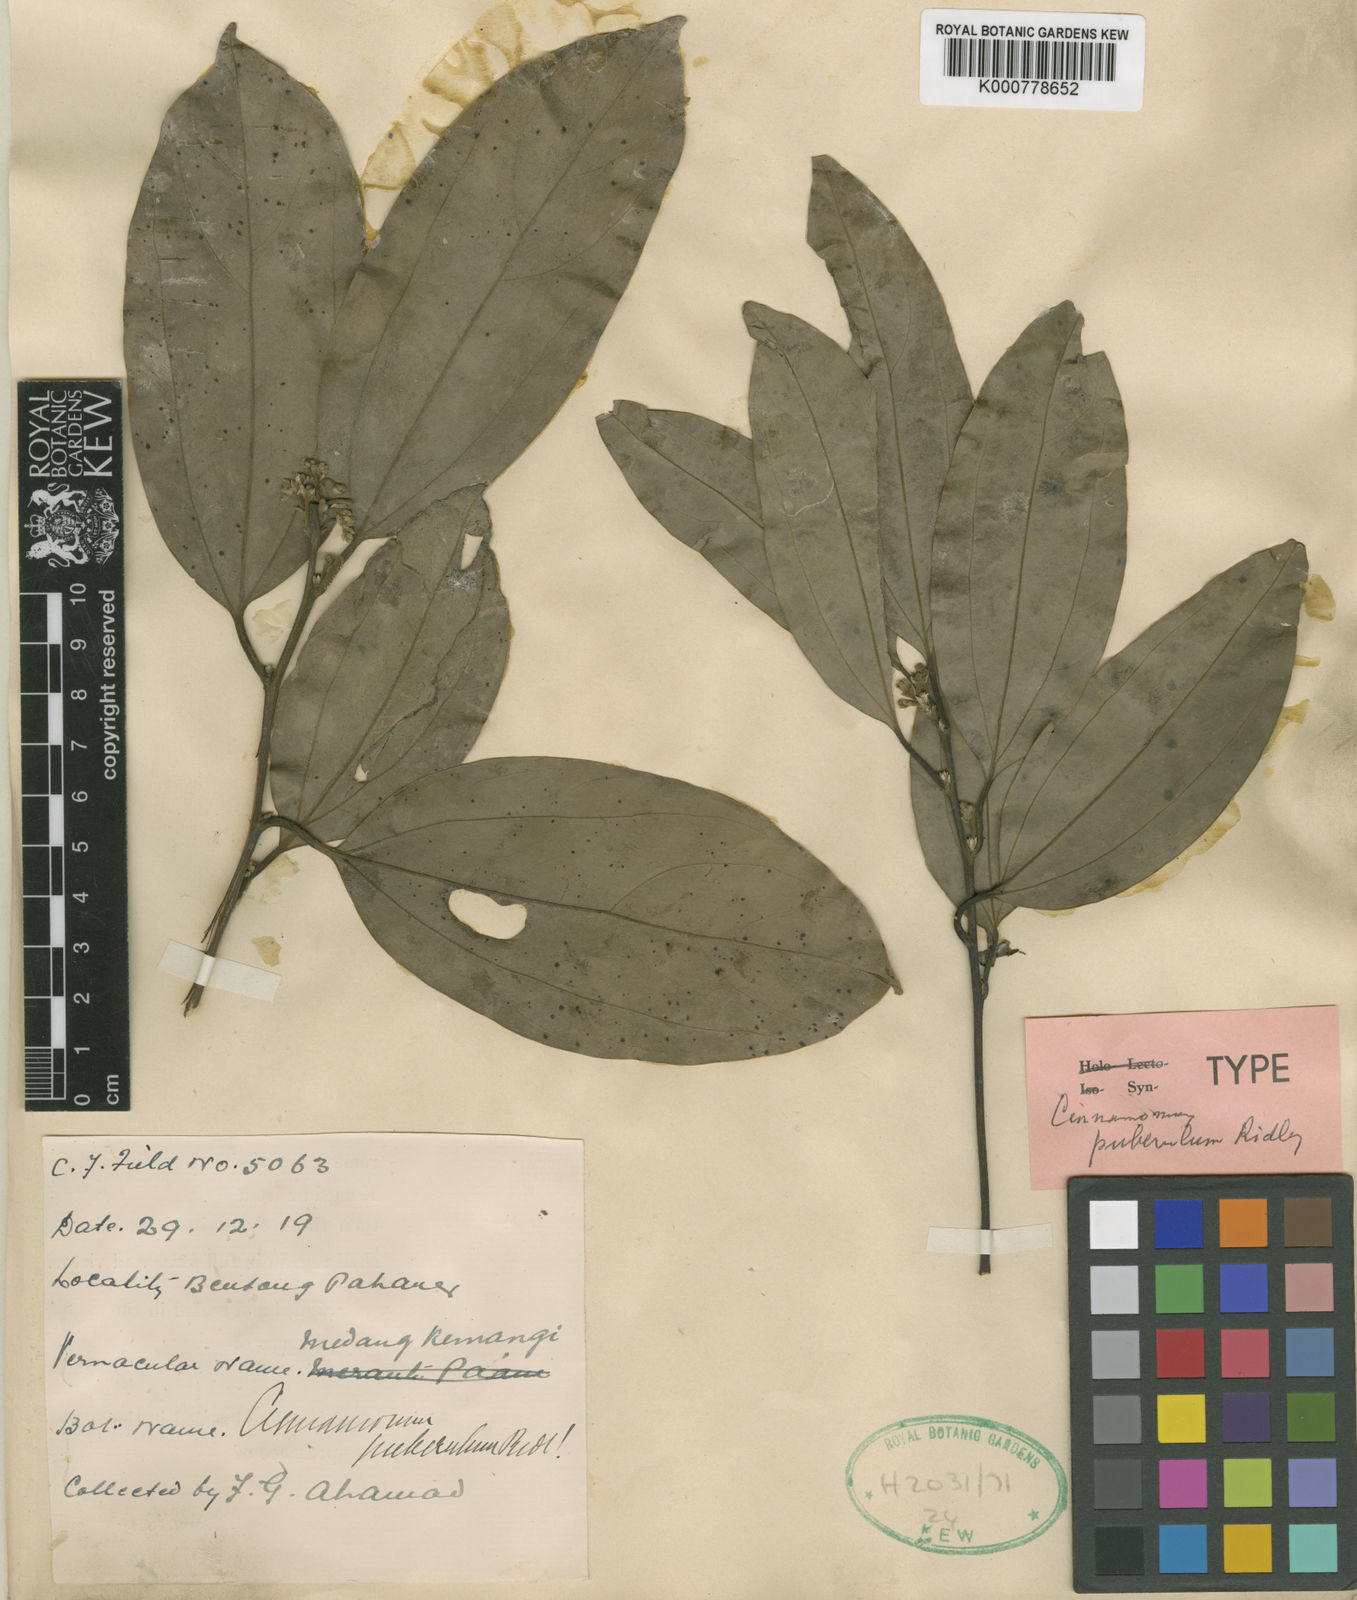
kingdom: Plantae
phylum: Tracheophyta
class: Magnoliopsida
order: Laurales
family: Lauraceae
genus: Cinnamomum
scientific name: Cinnamomum puberulum
